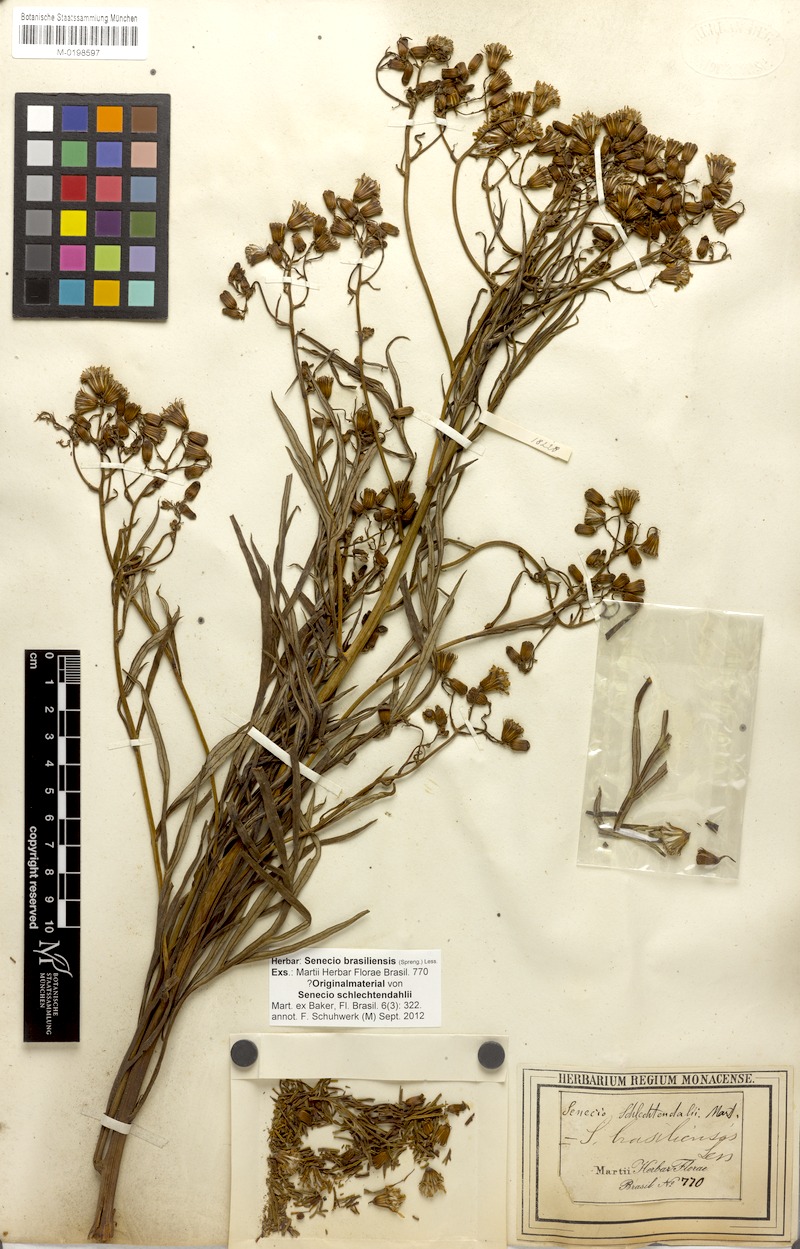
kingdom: Plantae
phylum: Tracheophyta
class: Magnoliopsida
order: Asterales
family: Asteraceae
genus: Senecio
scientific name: Senecio brasiliensis
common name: Hemp-leaf ragwort
